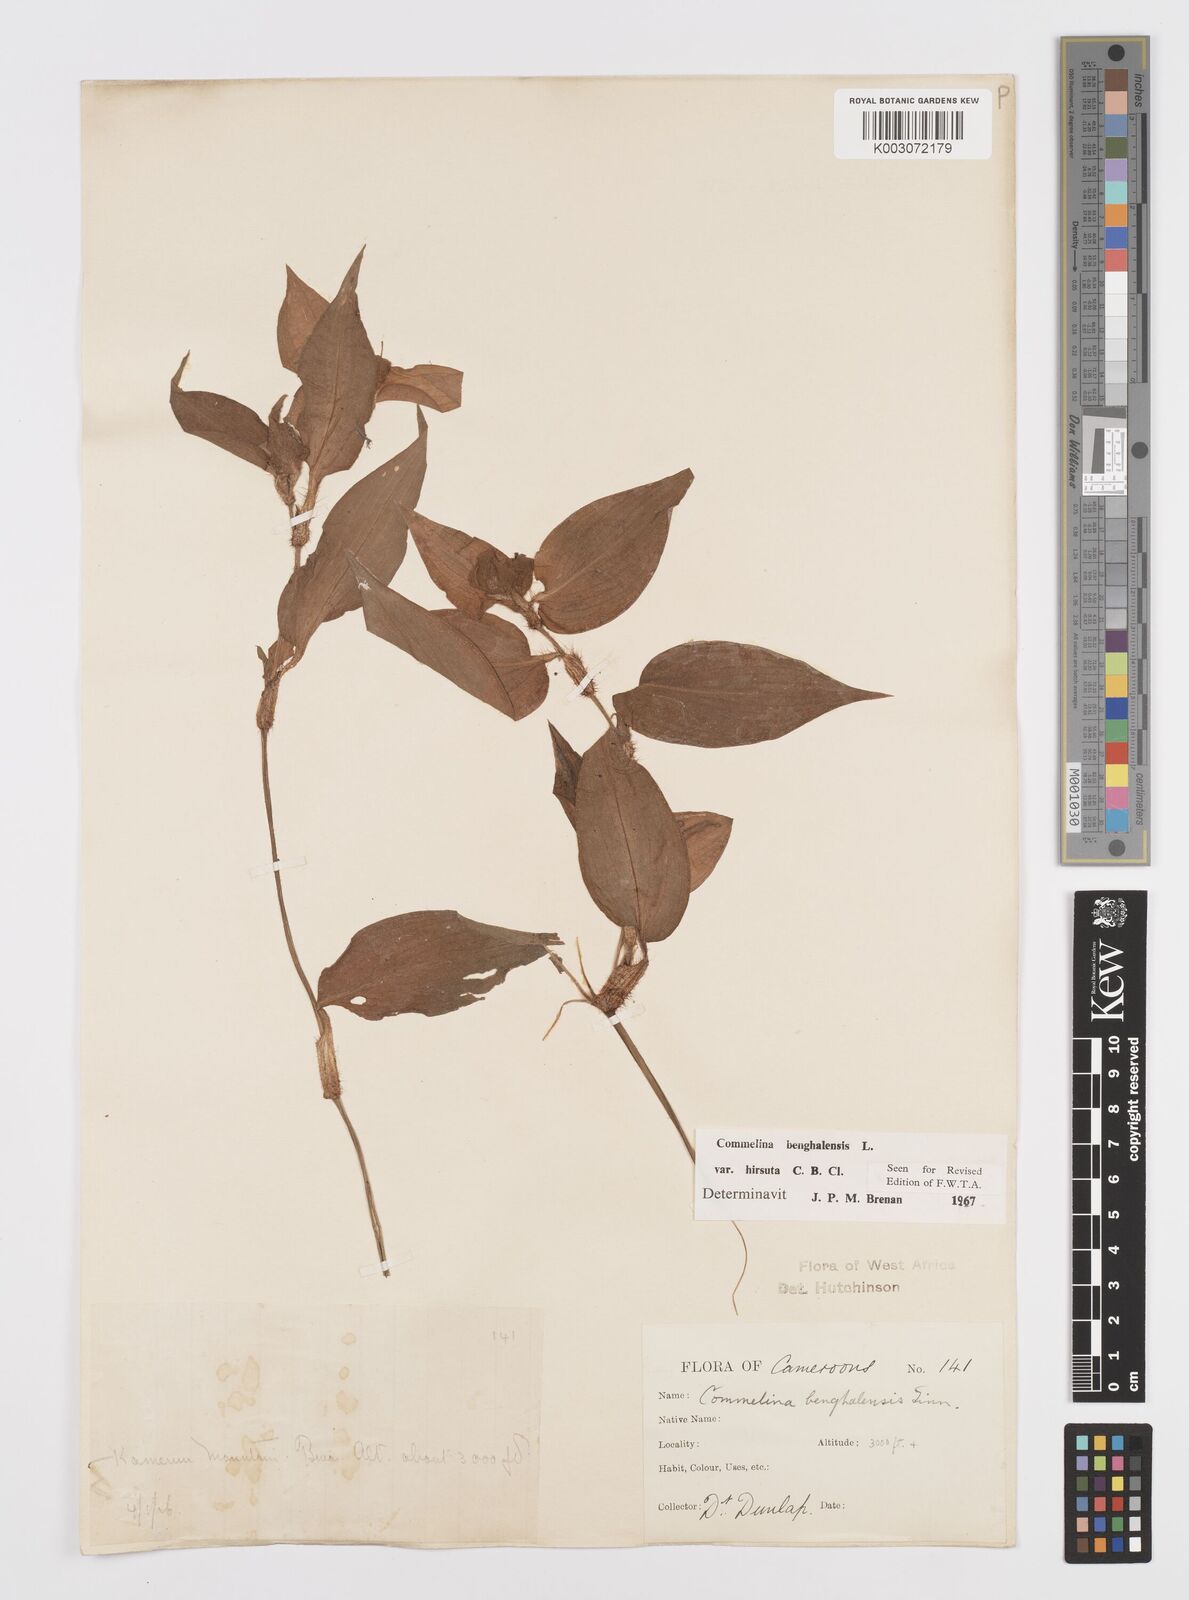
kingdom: Plantae
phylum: Tracheophyta
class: Liliopsida
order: Commelinales
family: Commelinaceae
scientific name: Commelinaceae
